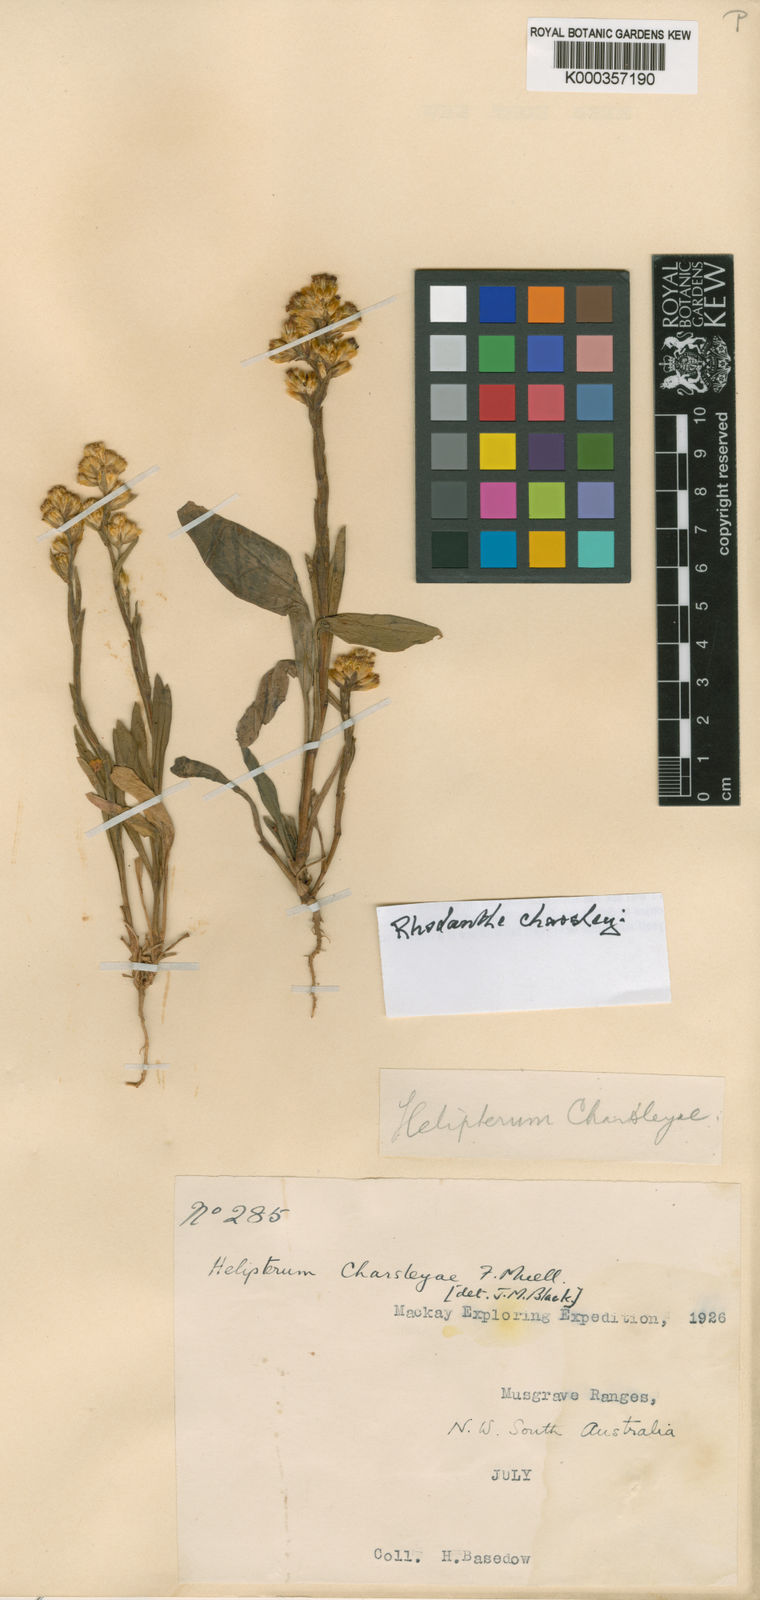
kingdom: Plantae
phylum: Tracheophyta
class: Magnoliopsida
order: Asterales
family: Asteraceae
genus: Rhodanthe
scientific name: Rhodanthe charsleyae
